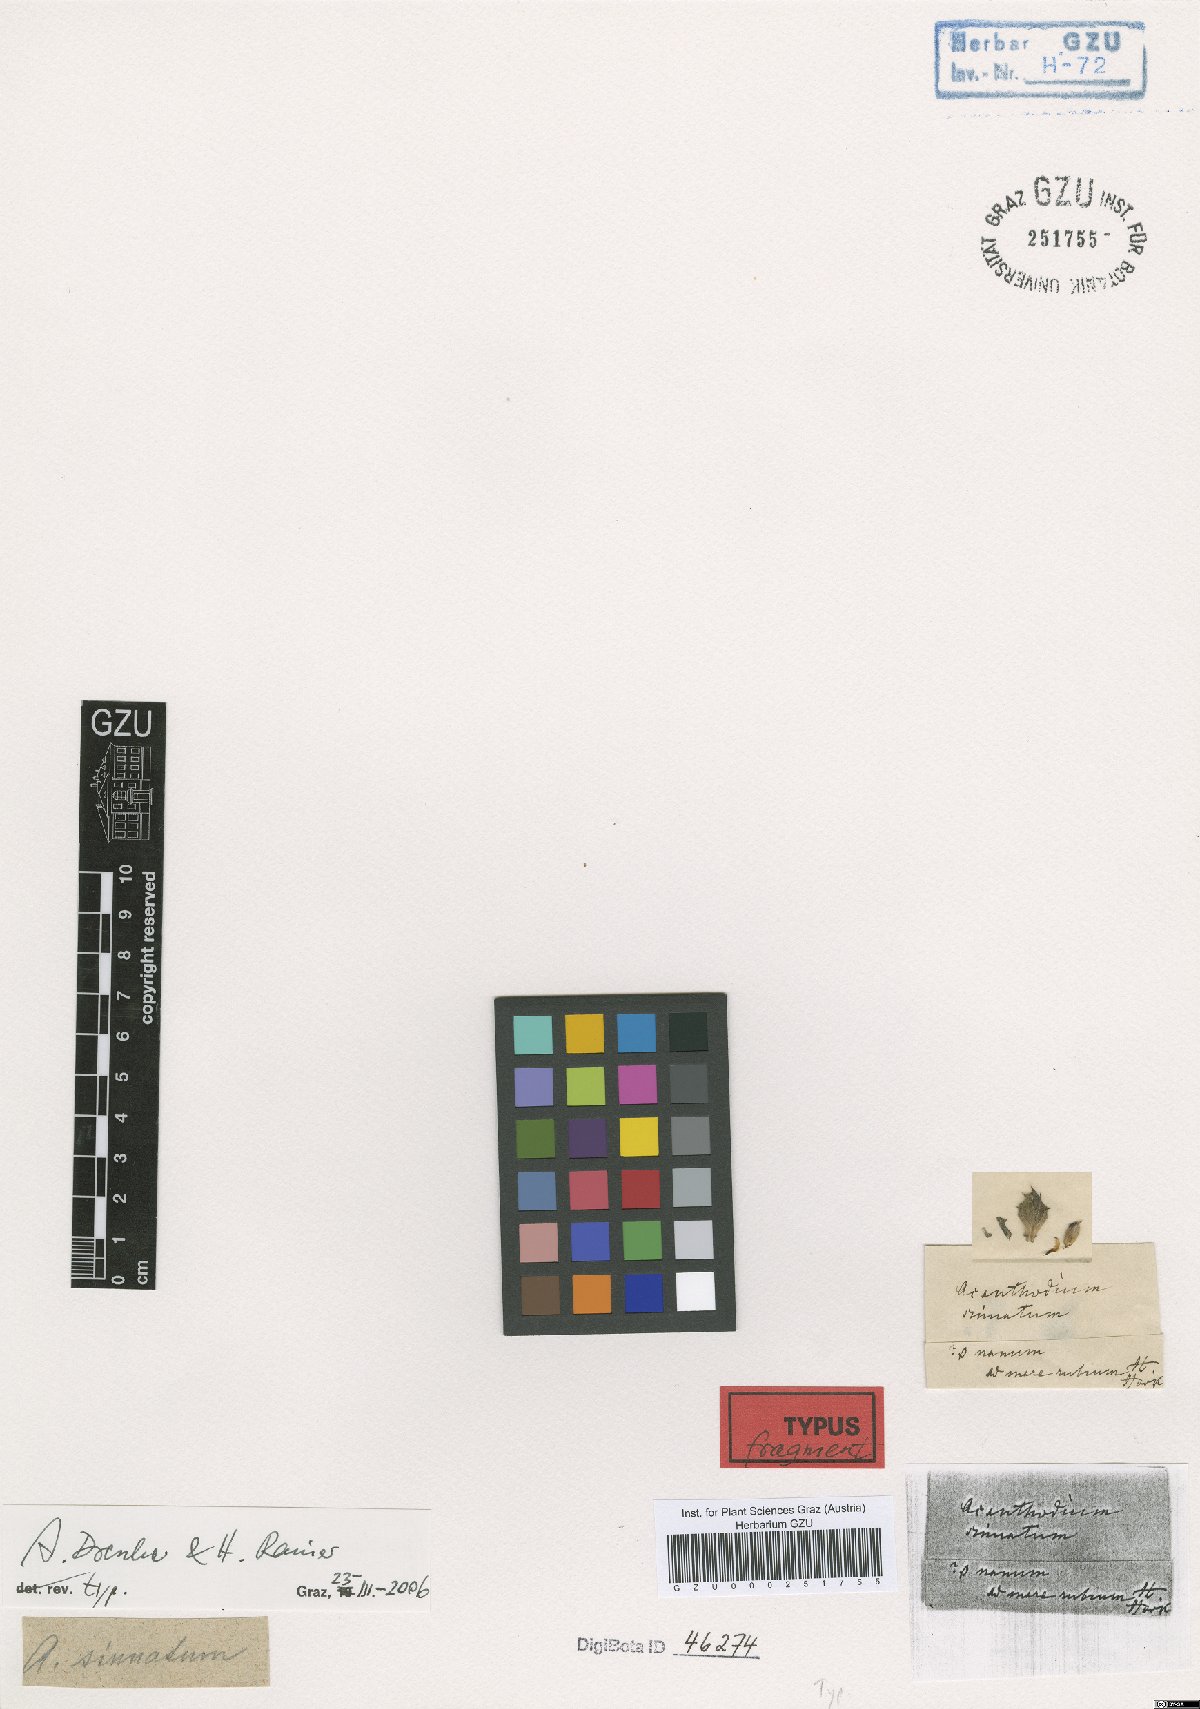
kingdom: Plantae
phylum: Tracheophyta
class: Magnoliopsida
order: Lamiales
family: Acanthaceae
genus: Blepharis
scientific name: Blepharis sinuata
